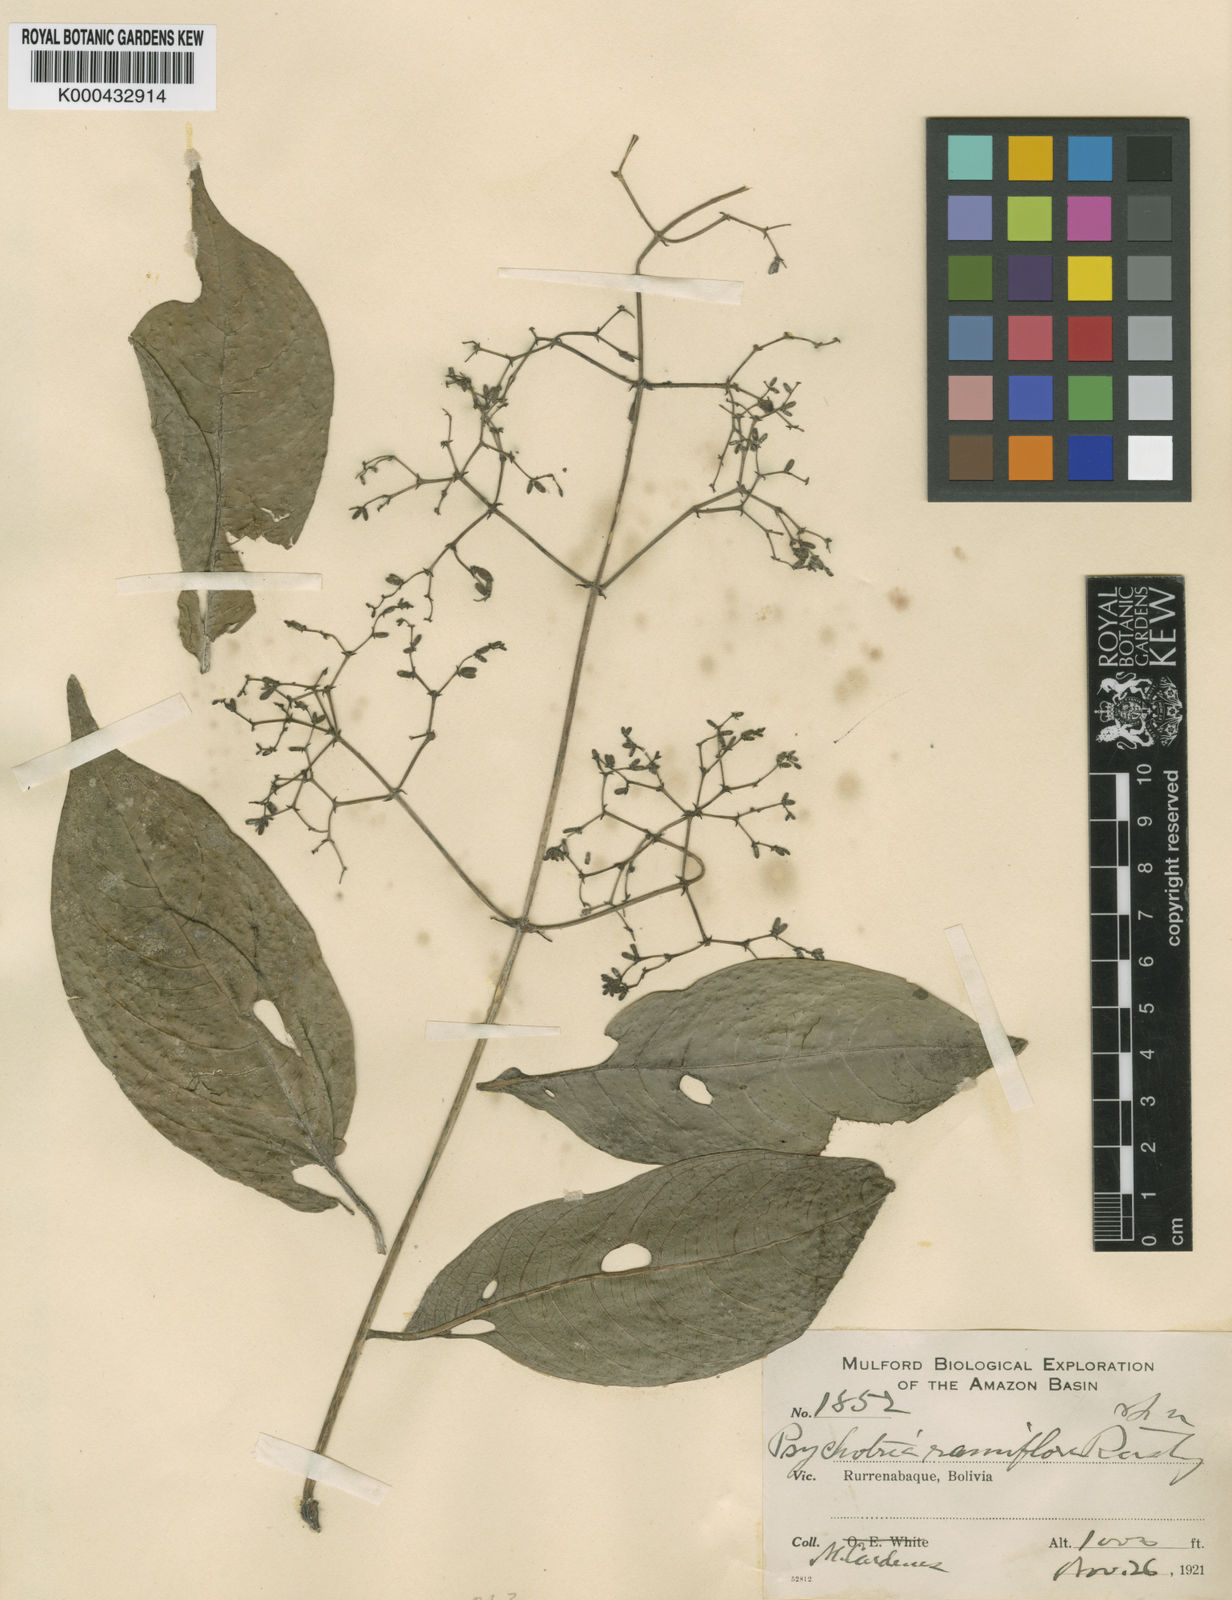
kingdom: Plantae
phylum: Tracheophyta
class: Magnoliopsida
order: Gentianales
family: Rubiaceae
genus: Palicourea
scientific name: Palicourea ramiflora
